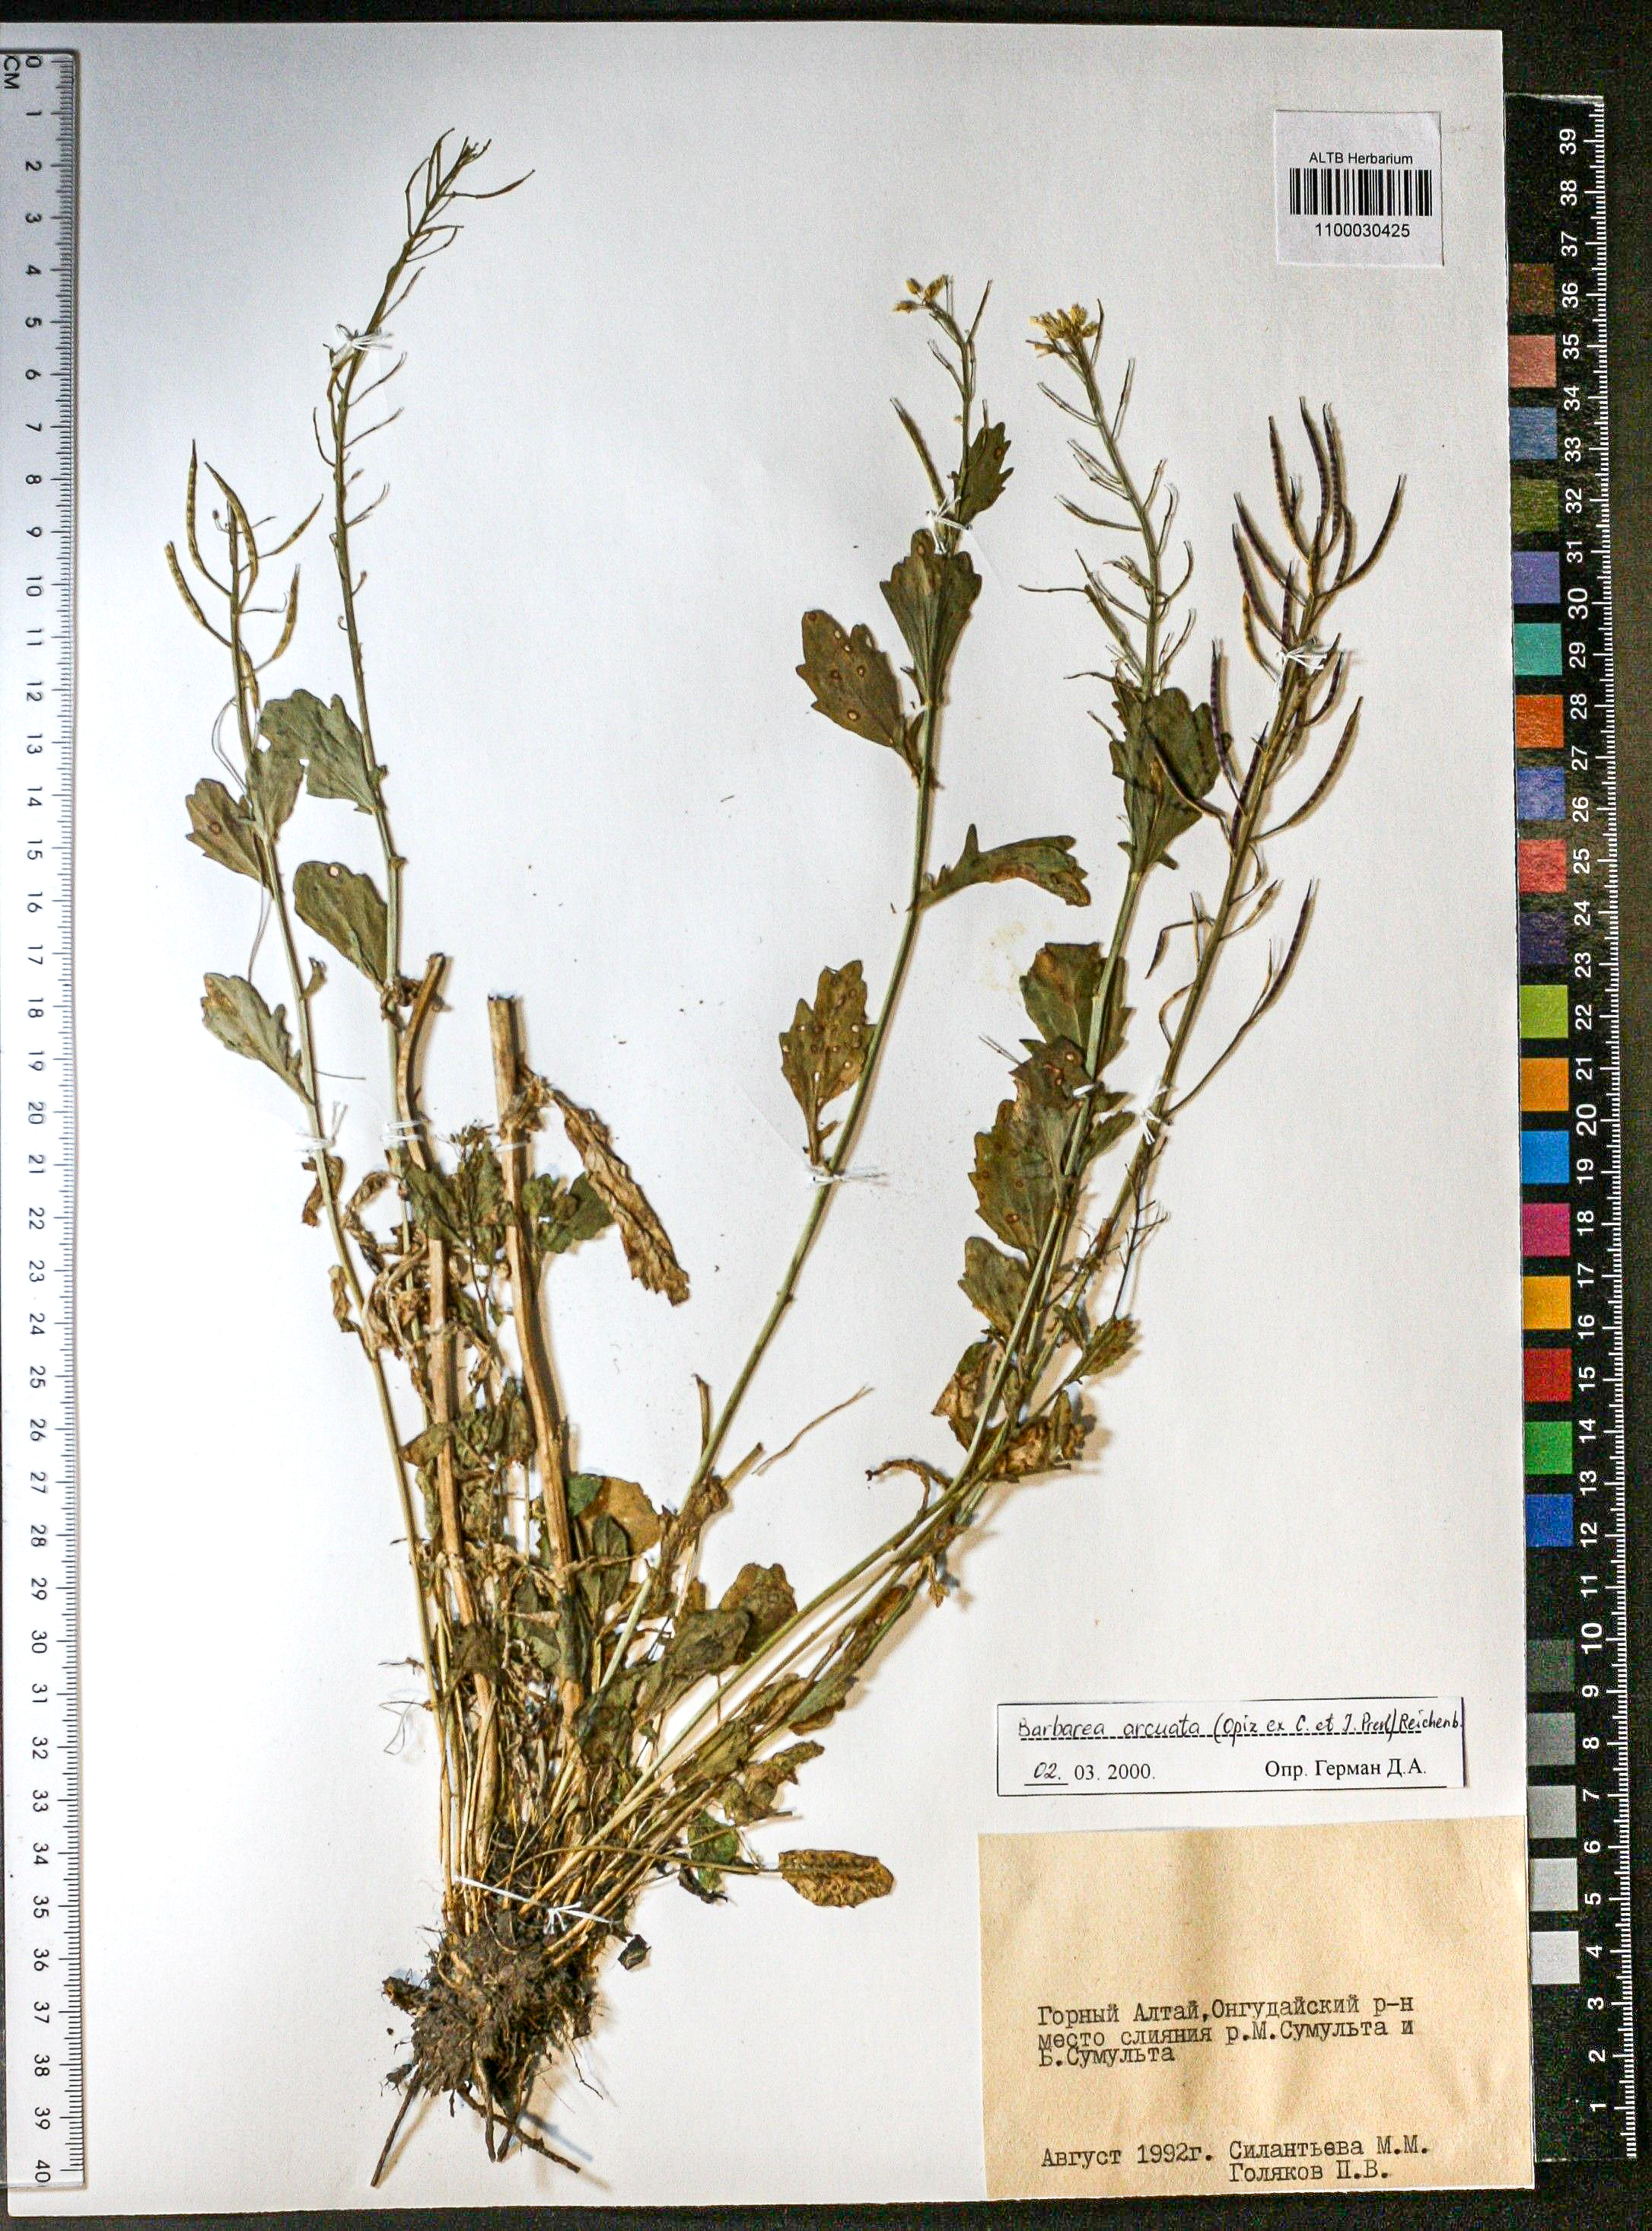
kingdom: Plantae
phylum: Tracheophyta
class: Magnoliopsida
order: Brassicales
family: Brassicaceae
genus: Barbarea
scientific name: Barbarea vulgaris
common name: Cressy-greens
